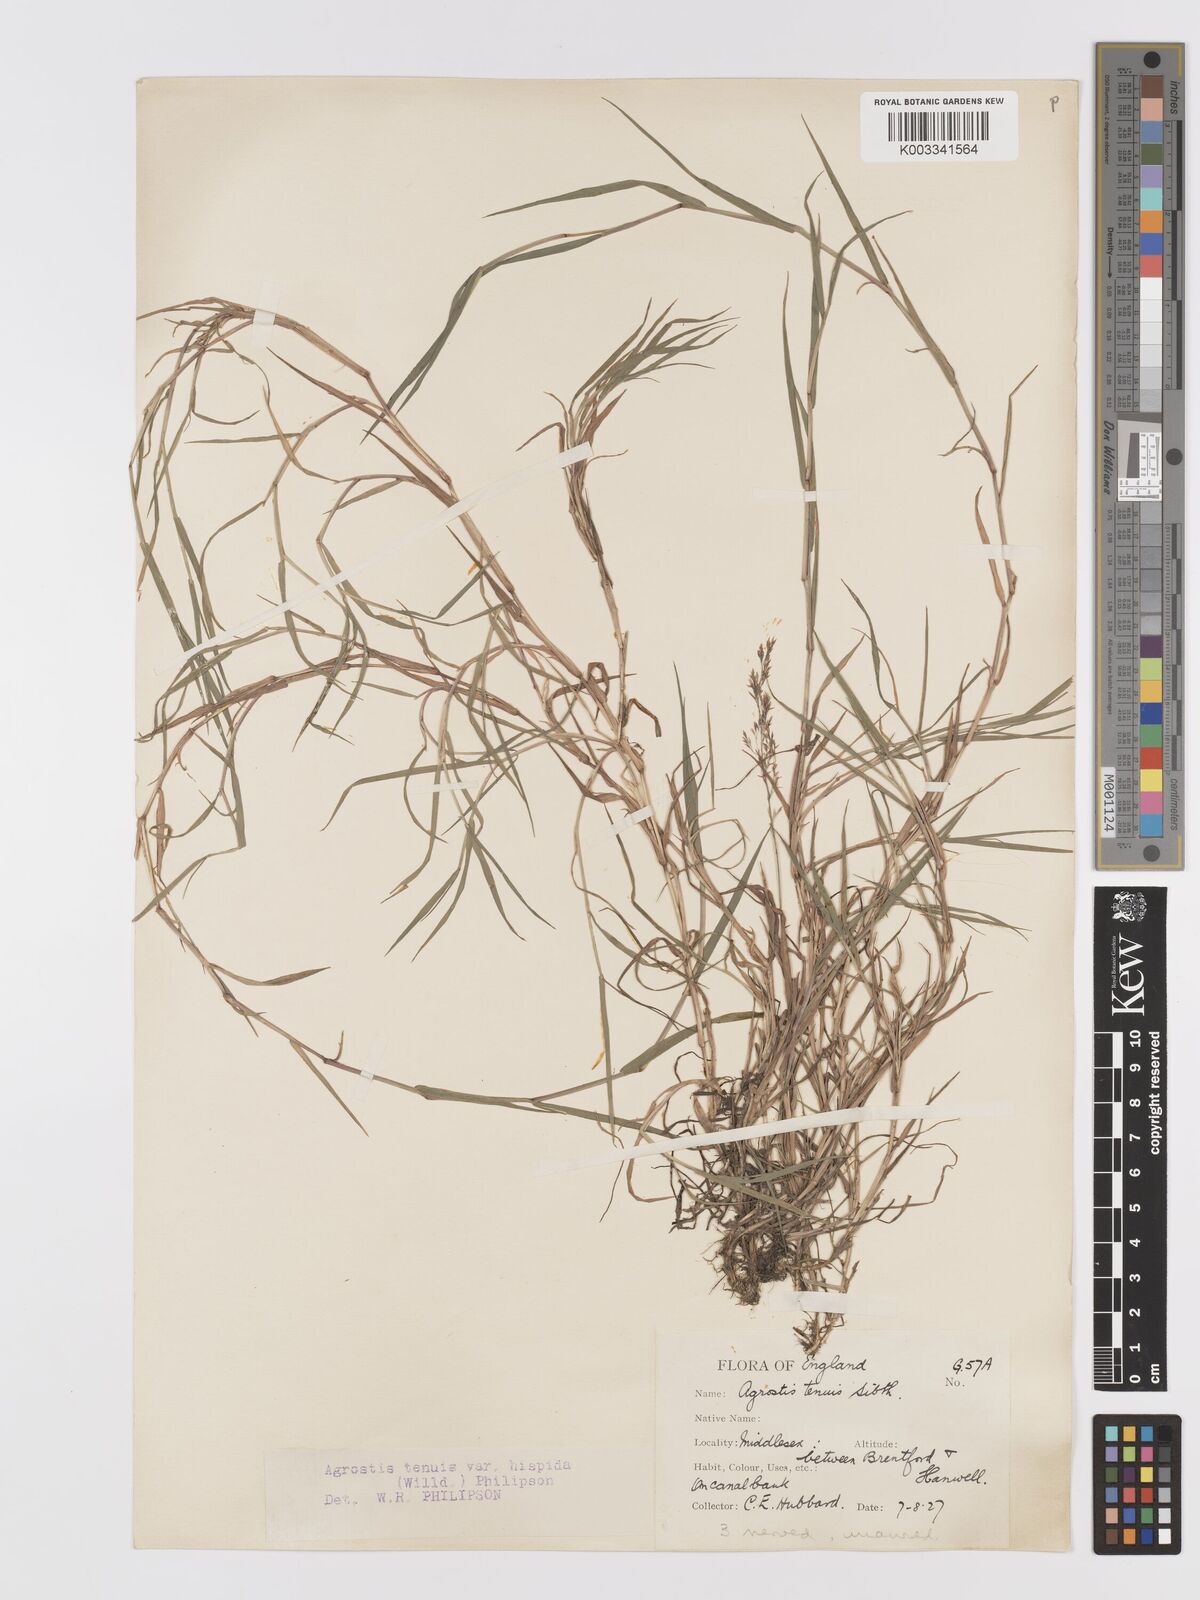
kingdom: Plantae
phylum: Tracheophyta
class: Liliopsida
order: Poales
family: Poaceae
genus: Agrostis
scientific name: Agrostis stolonifera
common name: Creeping bentgrass
